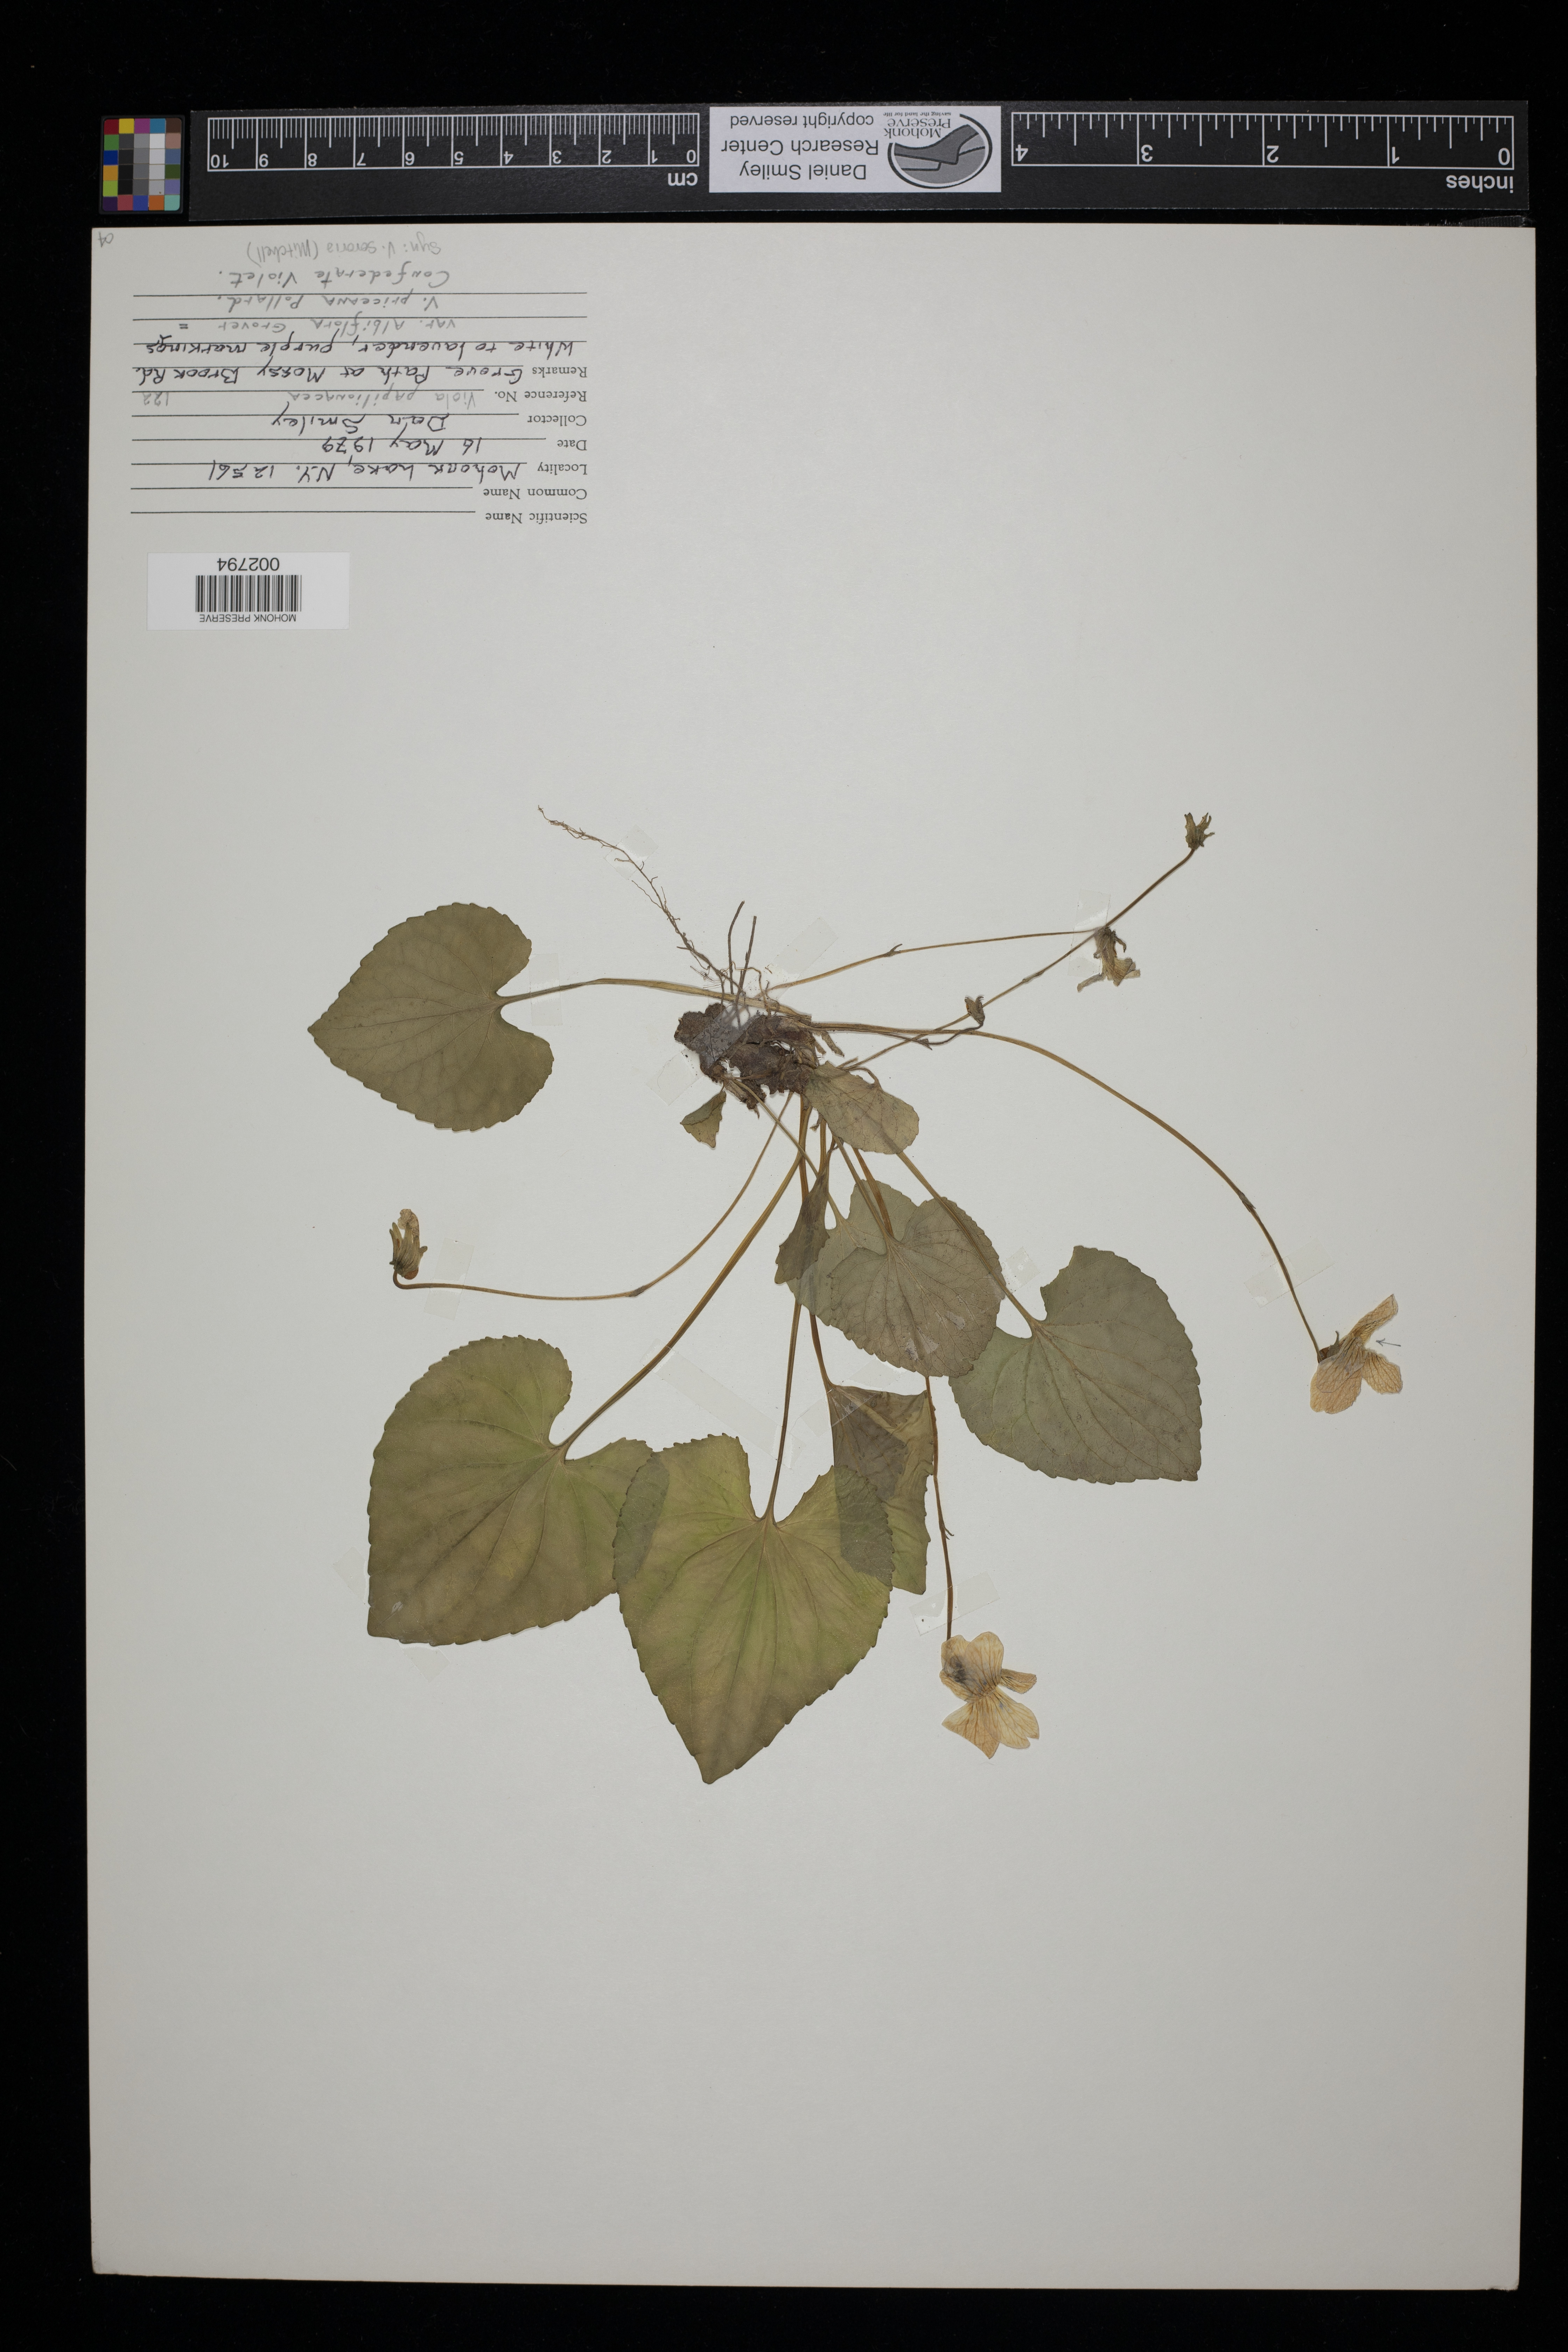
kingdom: Plantae
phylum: Tracheophyta
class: Magnoliopsida
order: Malpighiales
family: Violaceae
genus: Viola
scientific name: Viola sororia
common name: Dooryard violet
